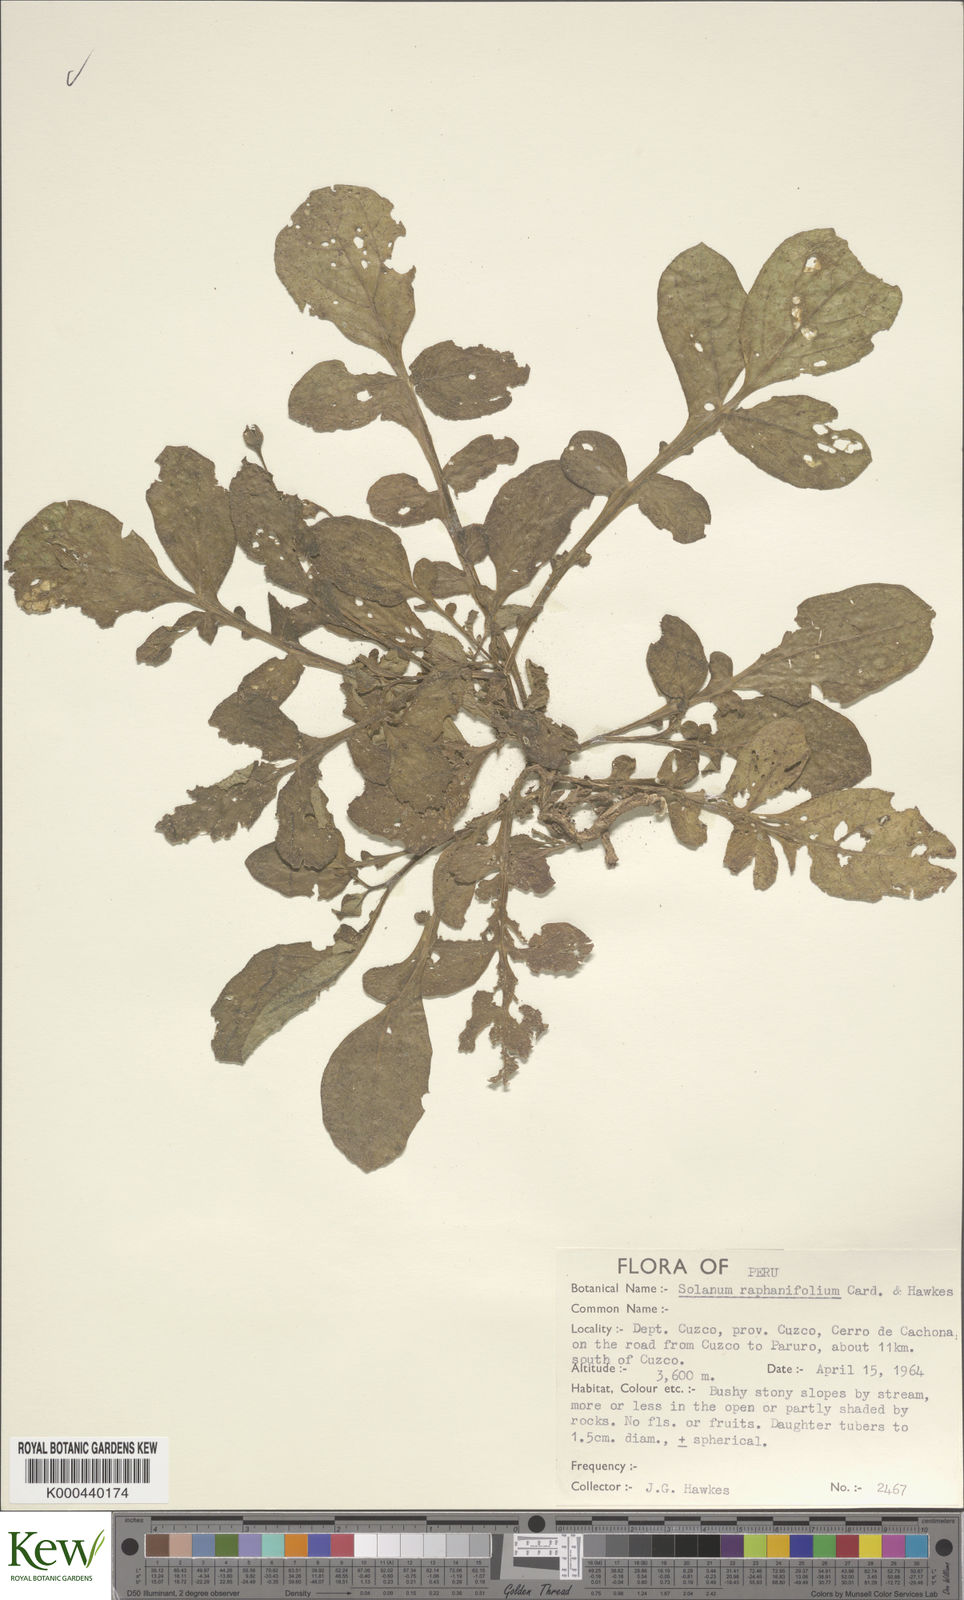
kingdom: Plantae
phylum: Tracheophyta
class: Magnoliopsida
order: Solanales
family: Solanaceae
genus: Solanum
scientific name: Solanum raphanifolium
